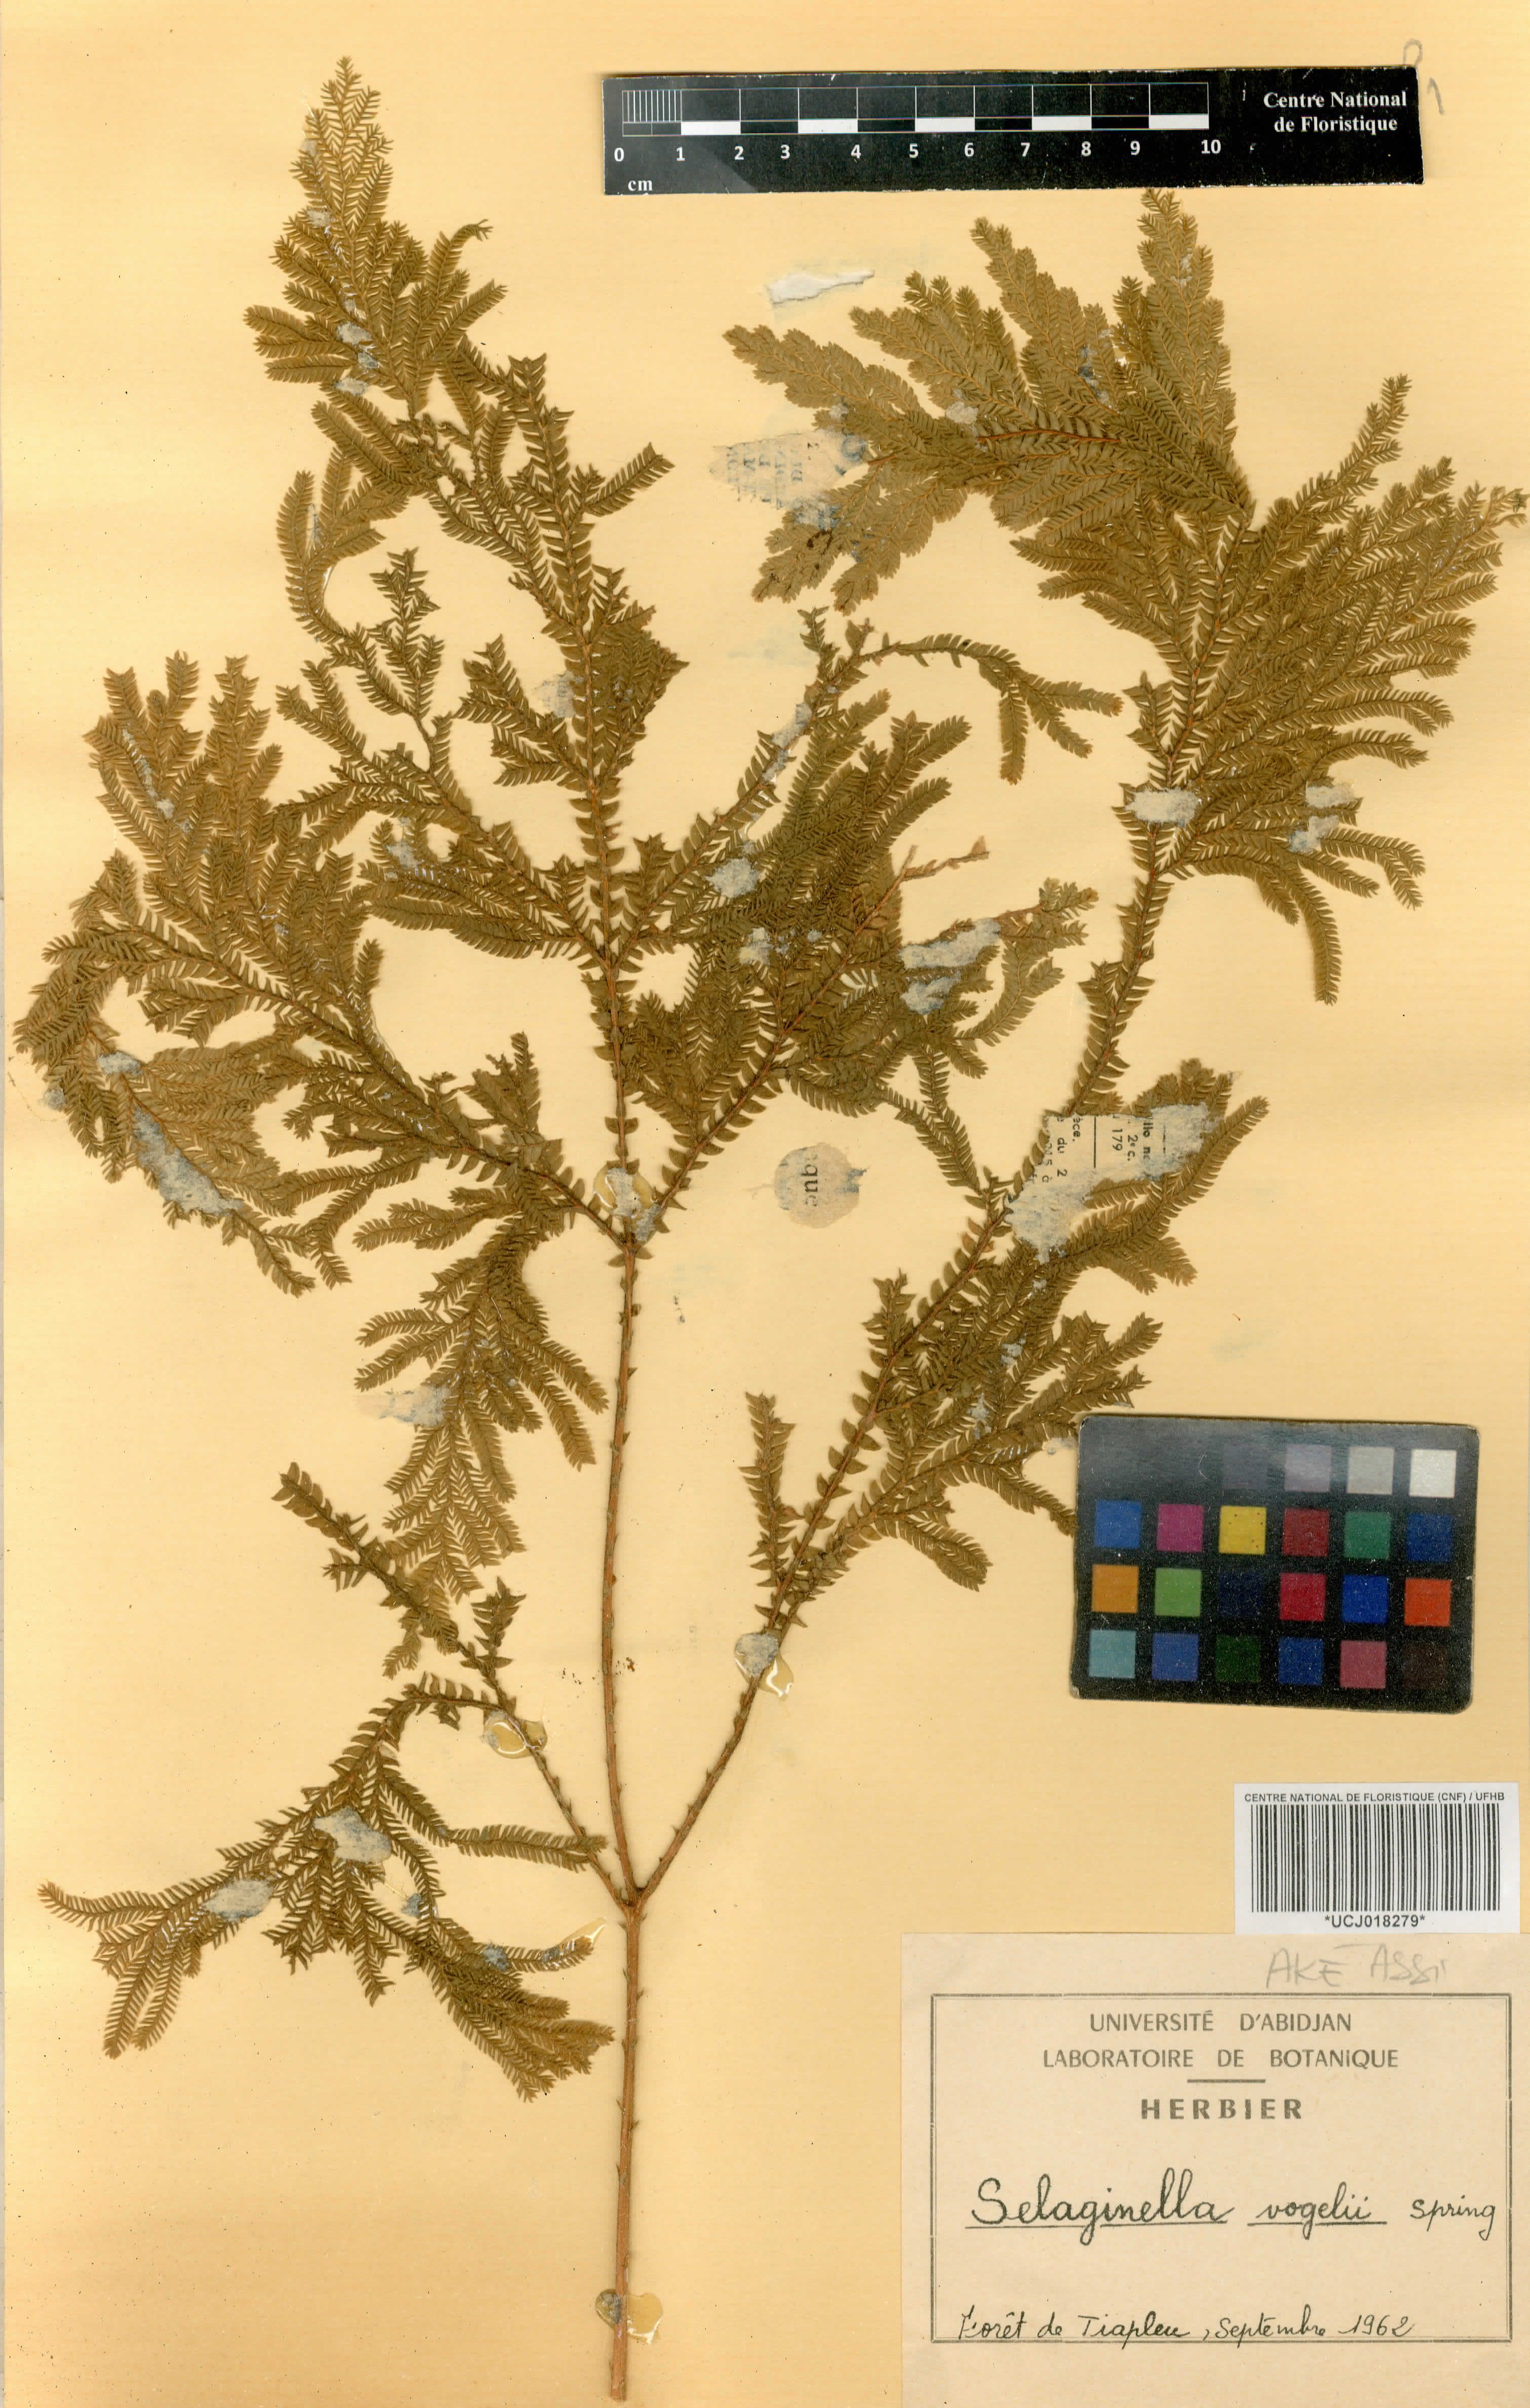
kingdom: Plantae
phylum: Tracheophyta
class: Lycopodiopsida
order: Selaginellales
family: Selaginellaceae
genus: Selaginella
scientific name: Selaginella vogelii
